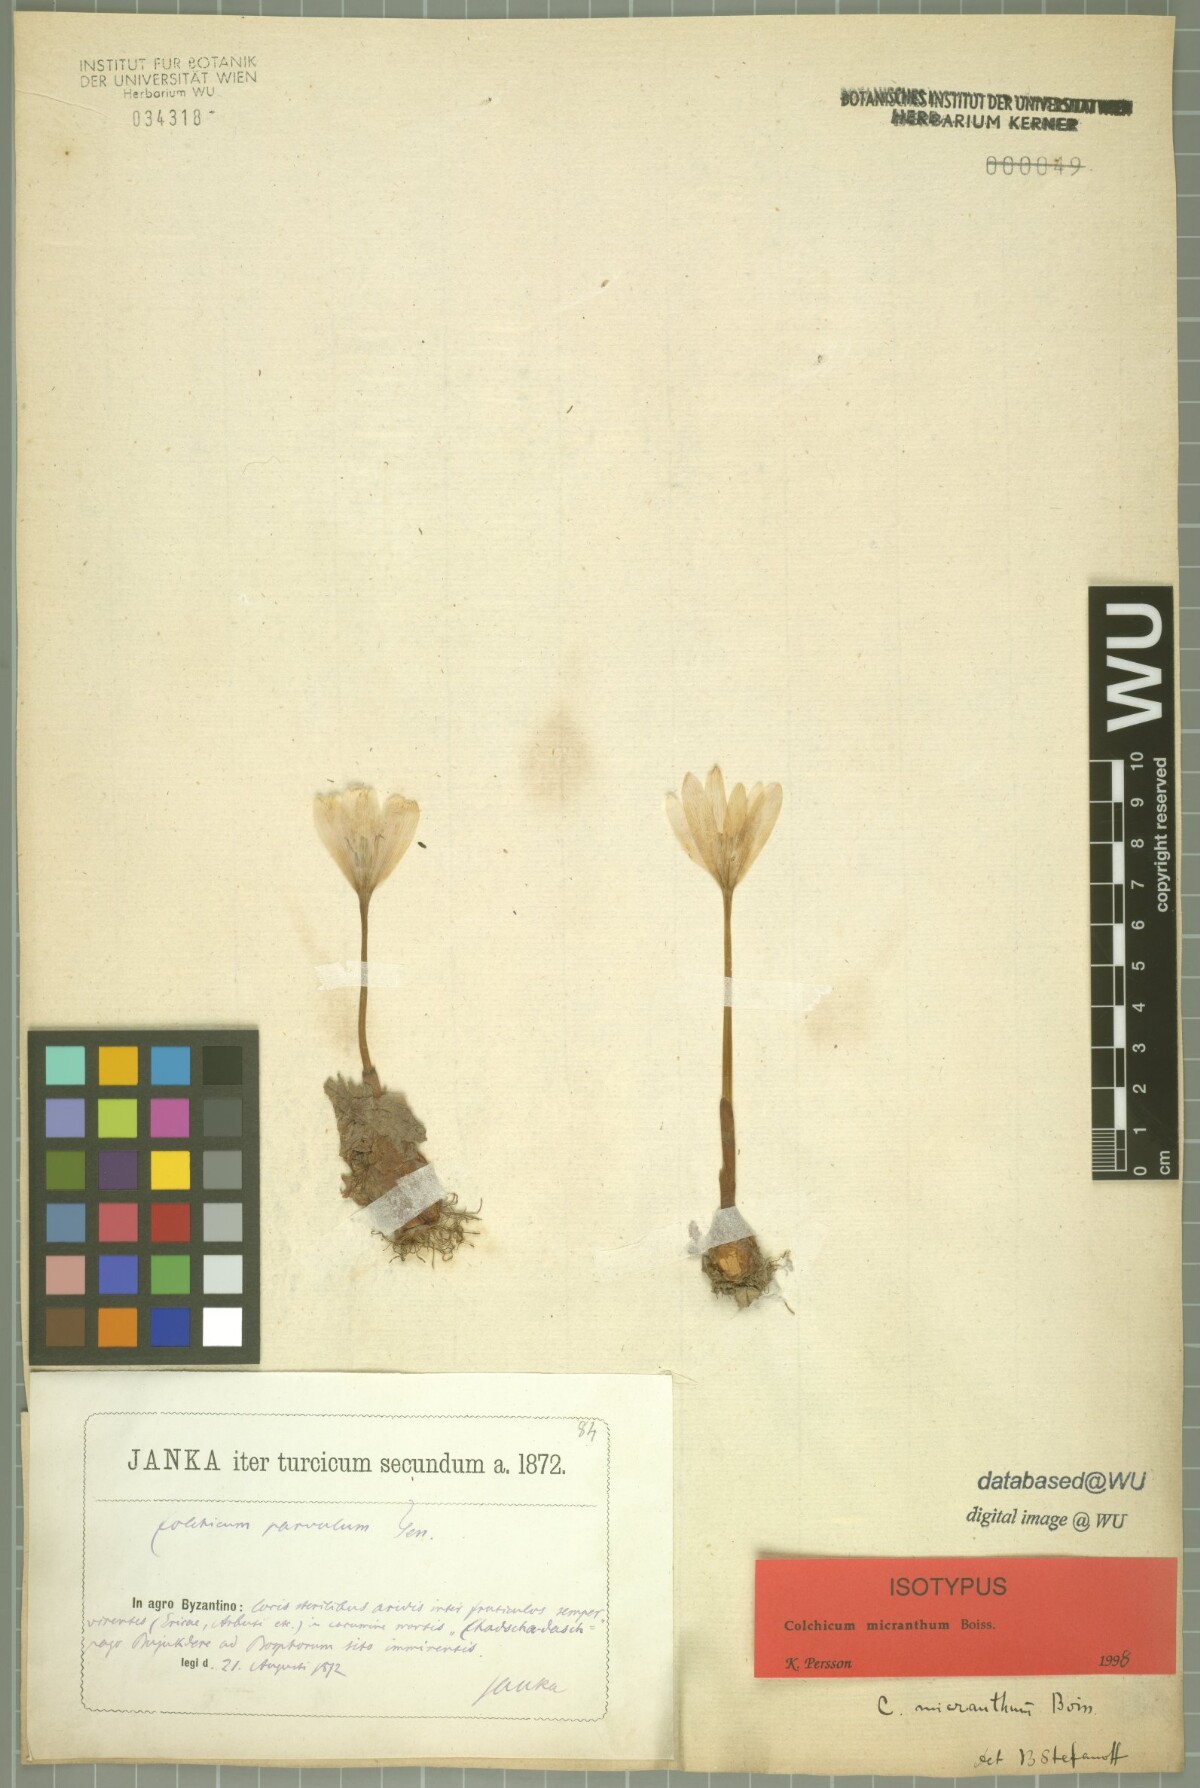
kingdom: Plantae
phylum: Tracheophyta
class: Liliopsida
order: Liliales
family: Colchicaceae
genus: Colchicum
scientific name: Colchicum micranthum
